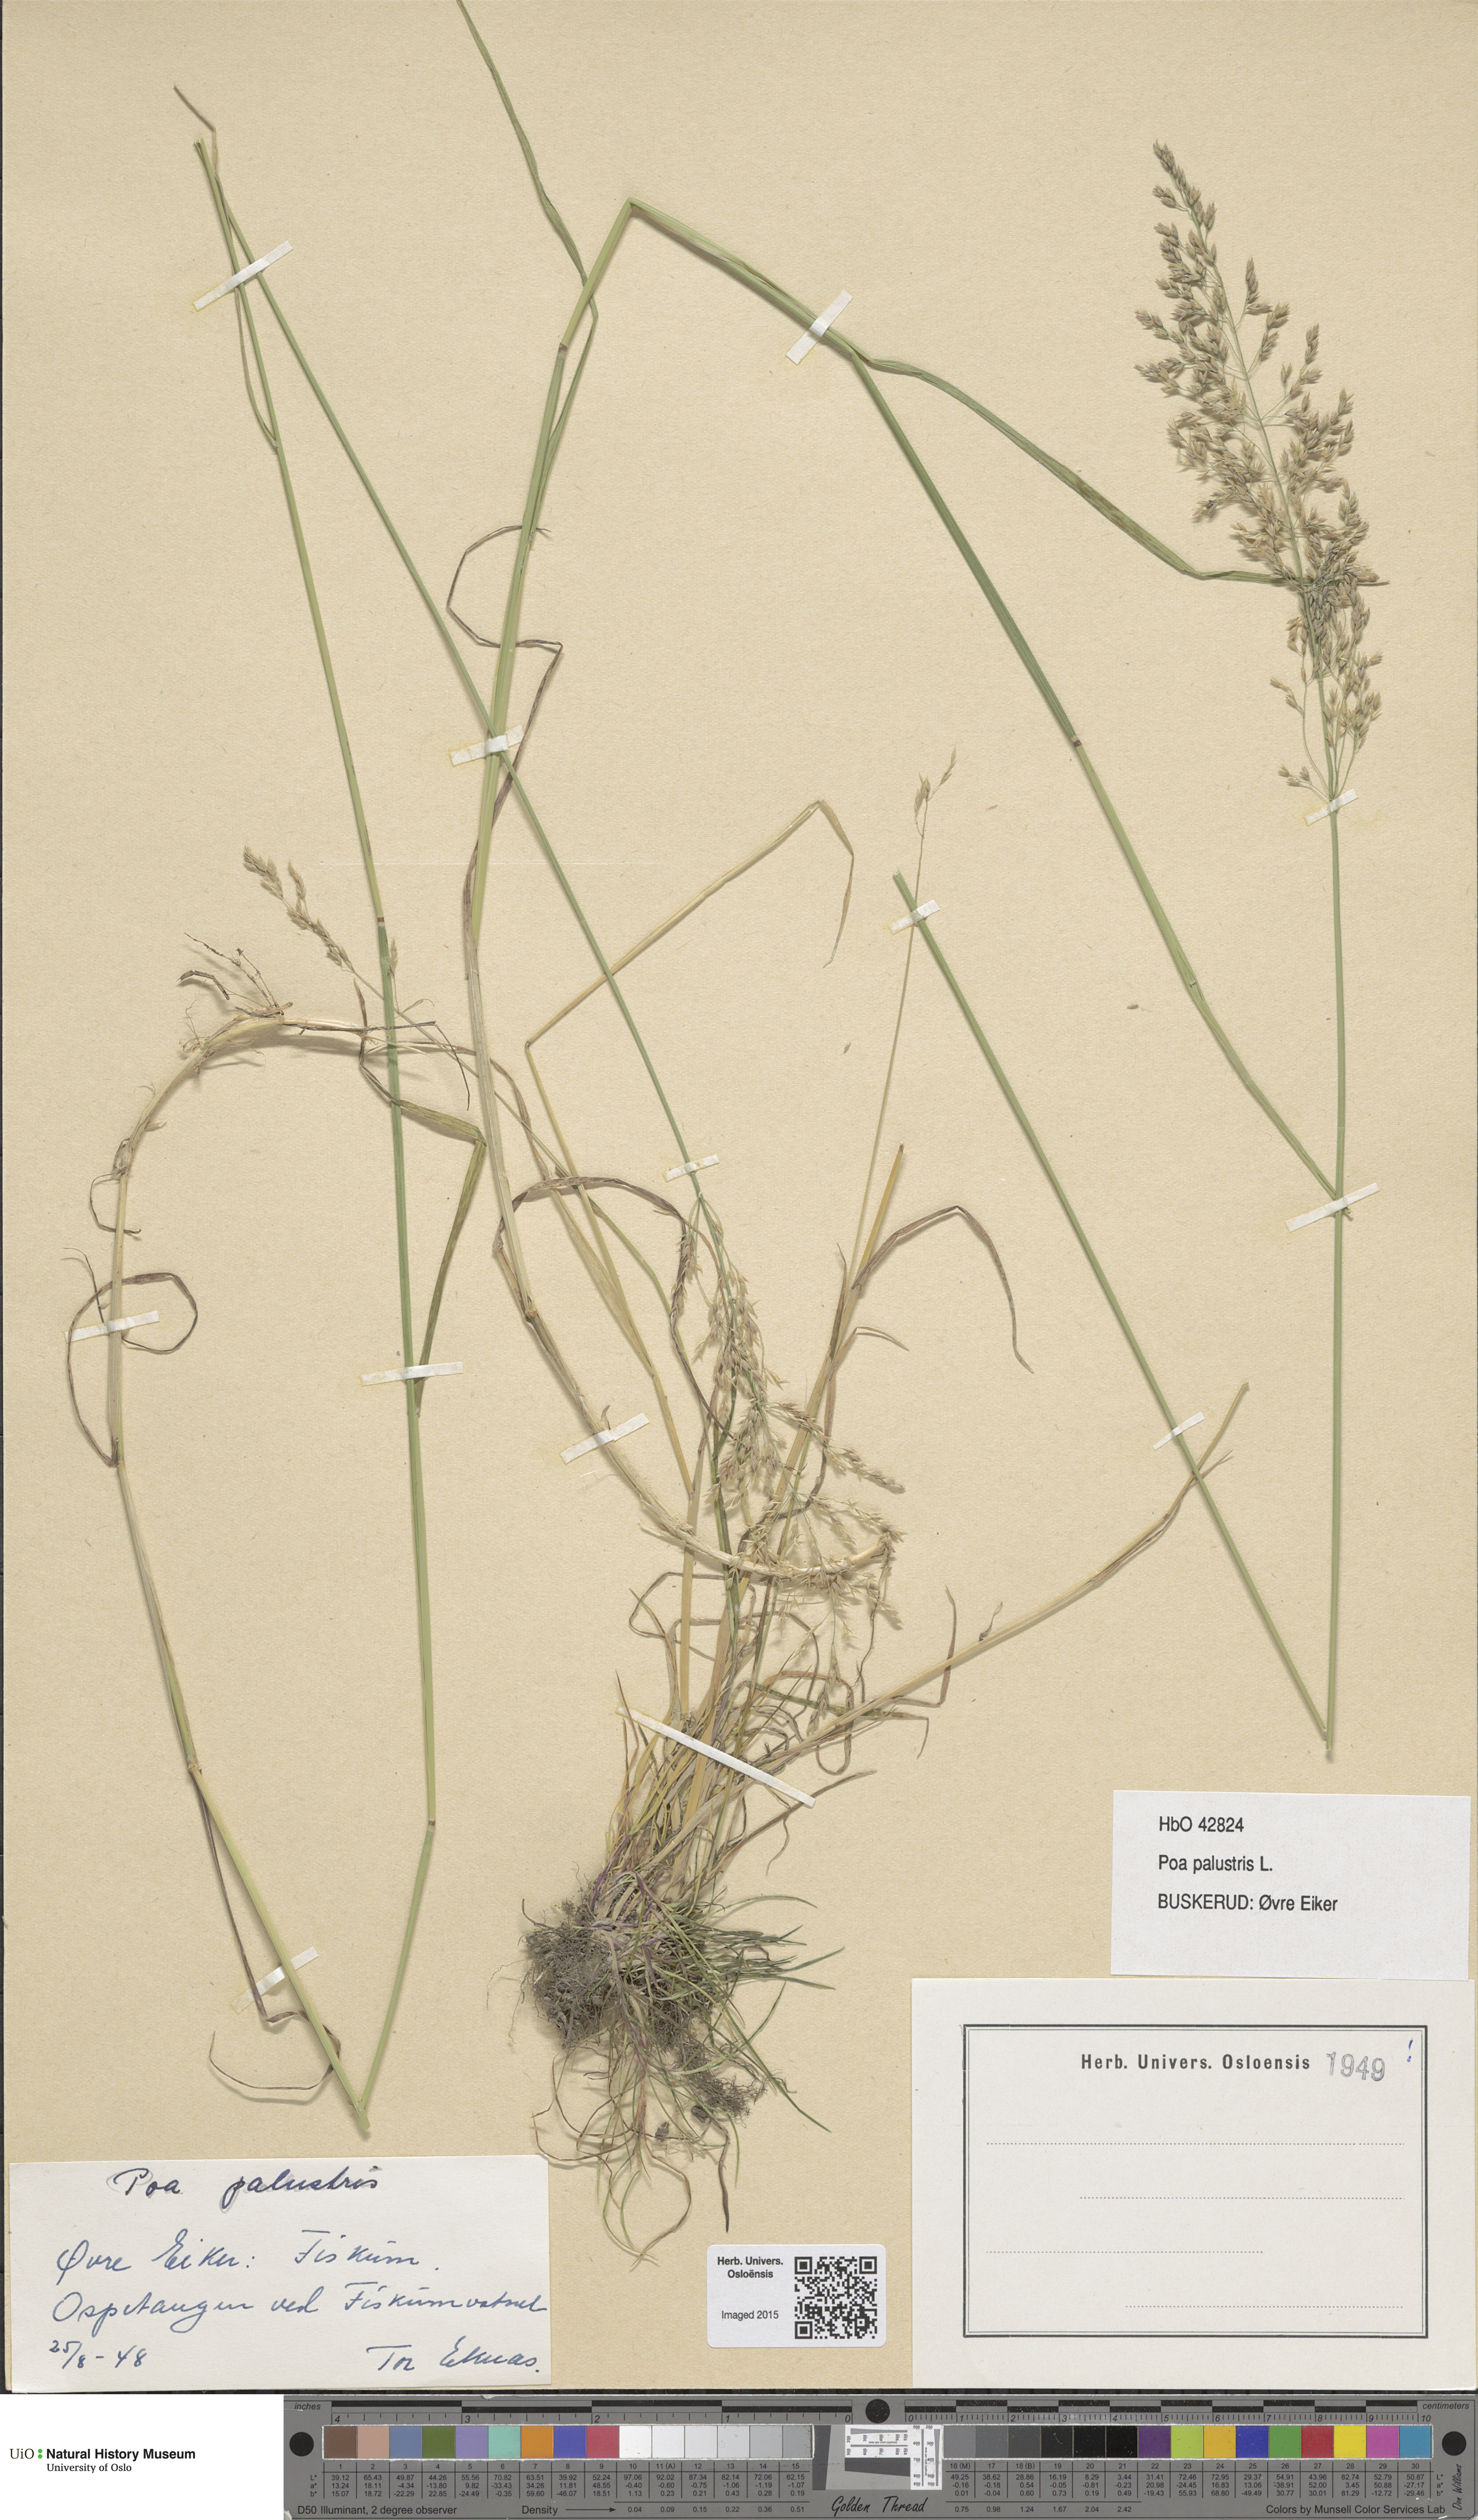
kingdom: Plantae
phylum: Tracheophyta
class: Liliopsida
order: Poales
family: Poaceae
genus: Poa
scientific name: Poa palustris
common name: Swamp meadow-grass
